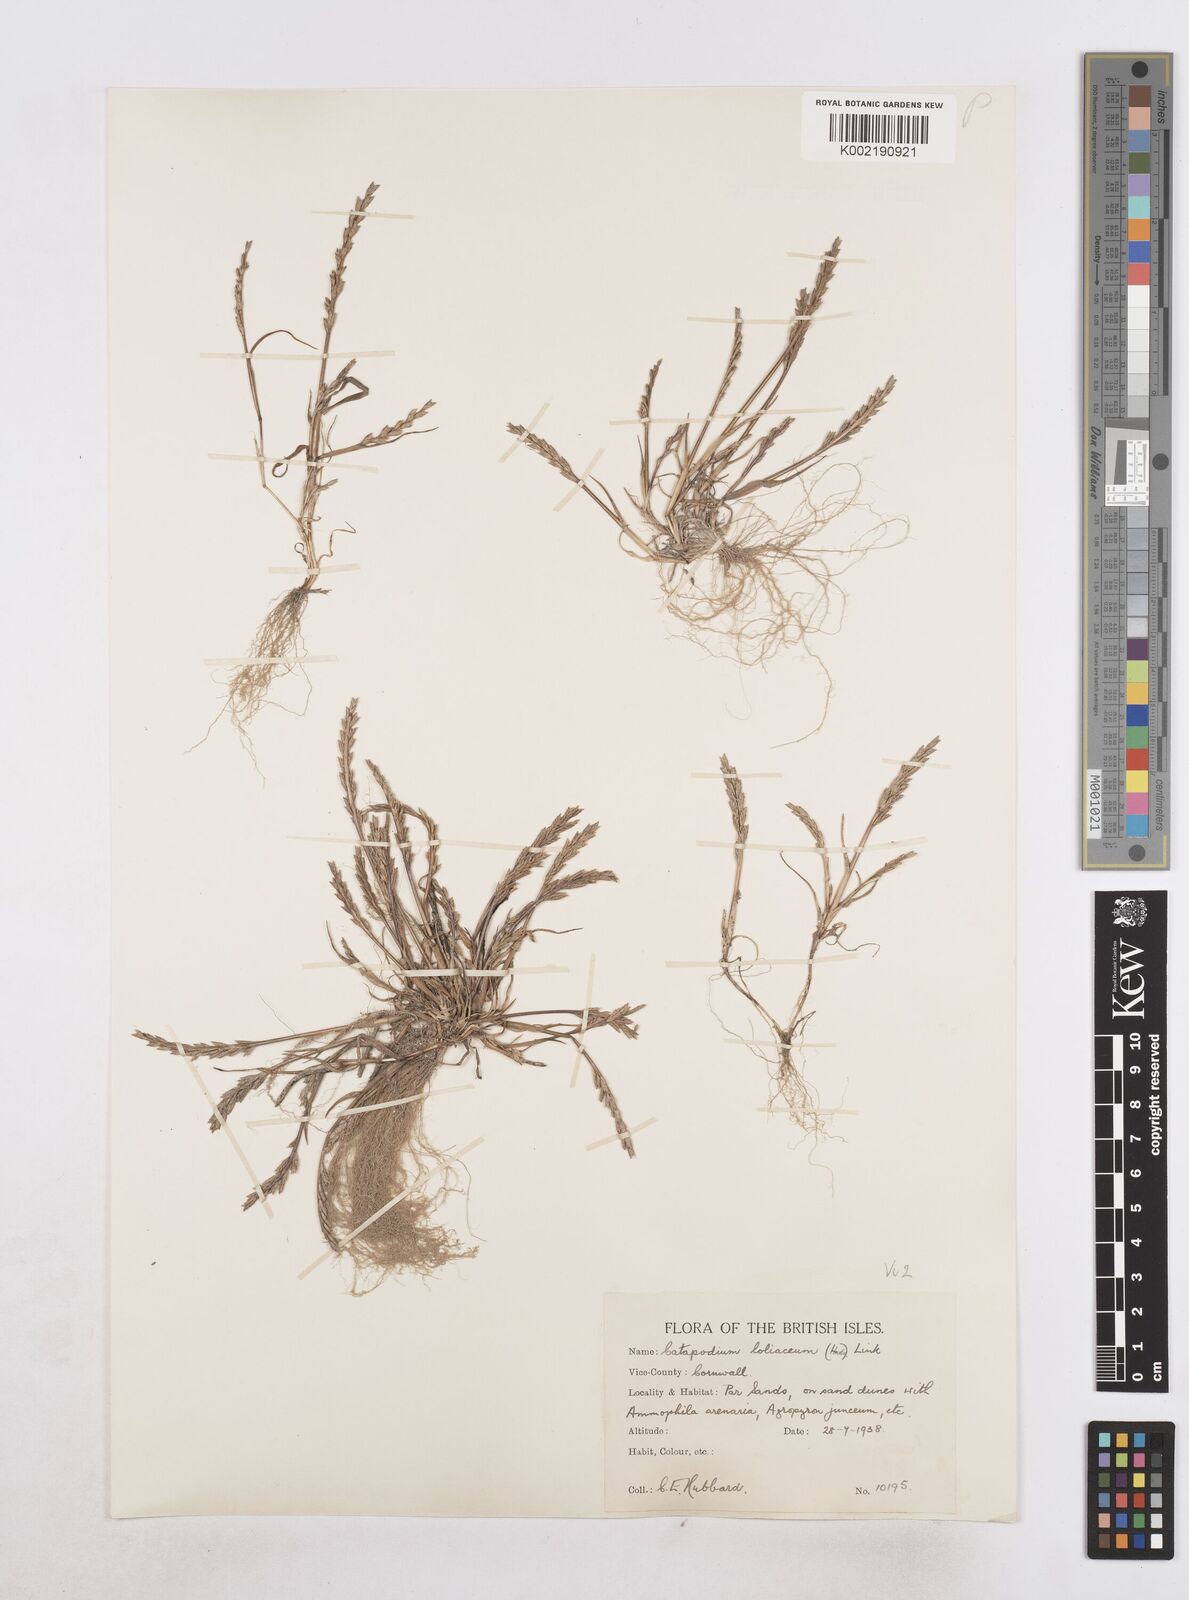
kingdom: Plantae
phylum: Tracheophyta
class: Liliopsida
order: Poales
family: Poaceae
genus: Catapodium
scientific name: Catapodium marinum
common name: Sea fern-grass
